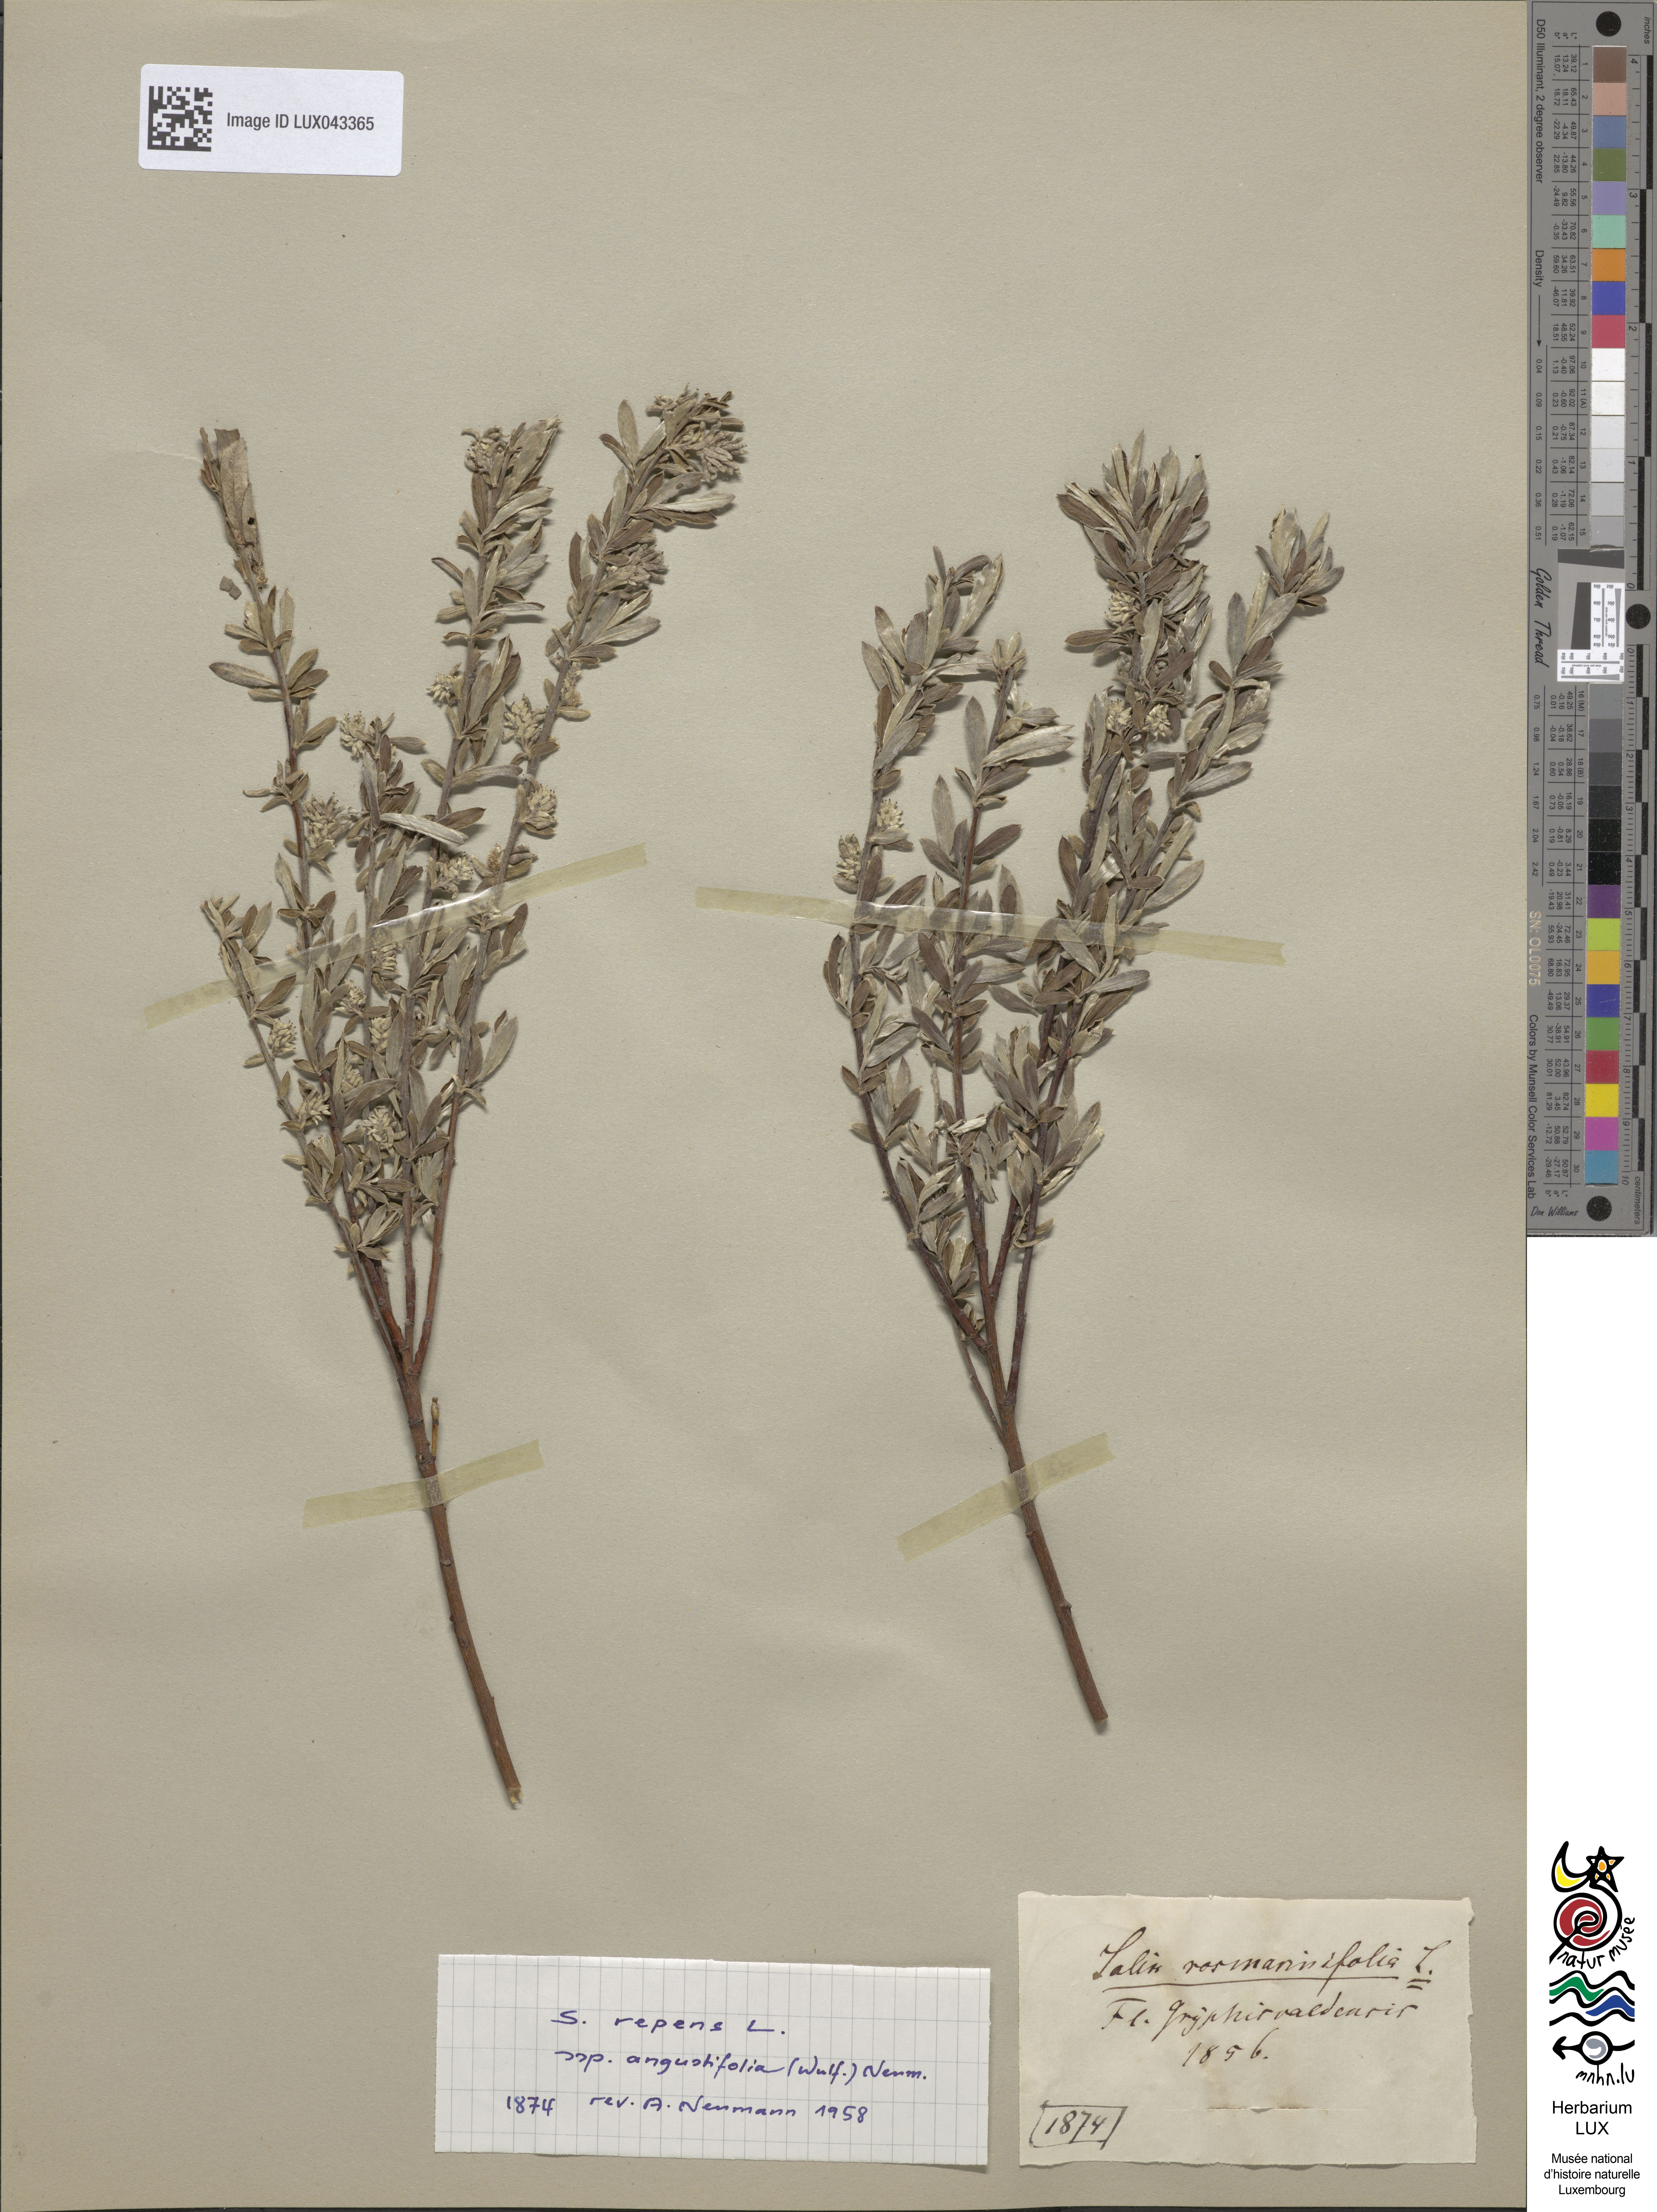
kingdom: Plantae
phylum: Tracheophyta
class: Magnoliopsida
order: Malpighiales
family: Salicaceae
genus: Salix
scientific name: Salix rosmarinifolia
